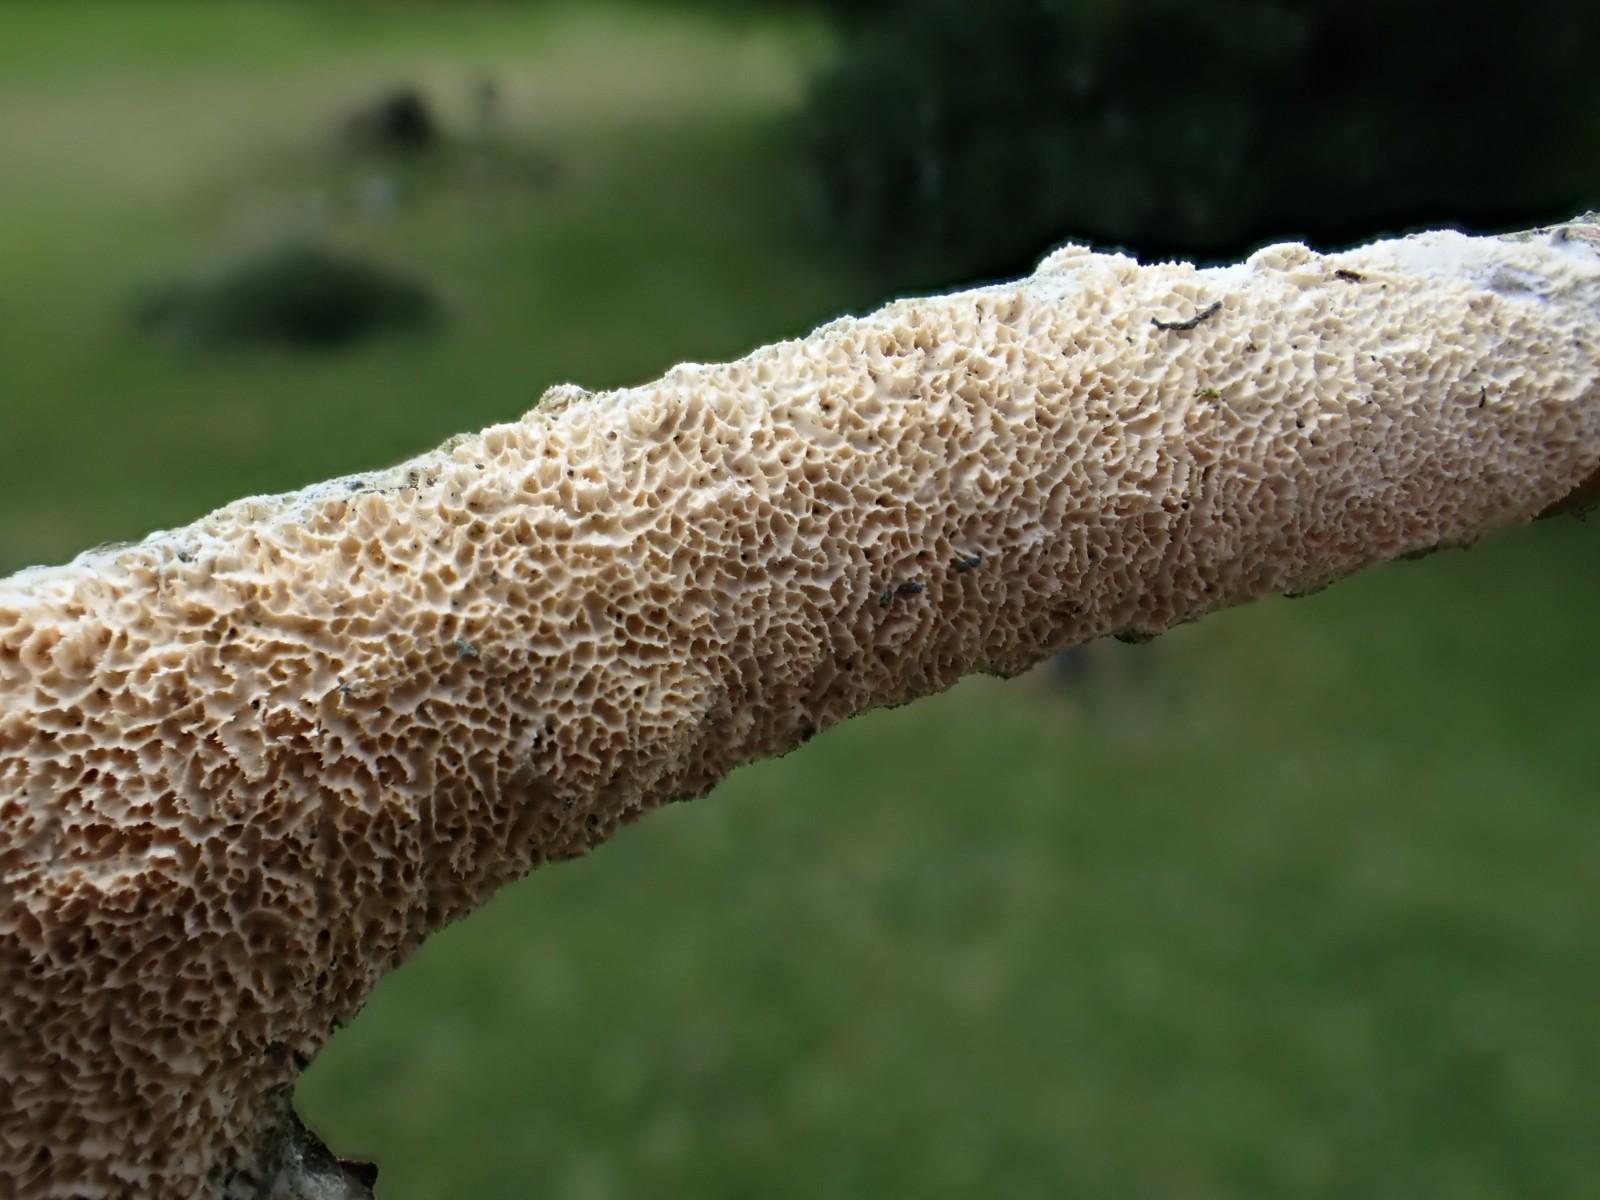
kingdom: Fungi
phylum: Basidiomycota
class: Agaricomycetes
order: Hymenochaetales
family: Schizoporaceae
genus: Schizopora
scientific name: Schizopora paradoxa
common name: hvid tandsvamp
